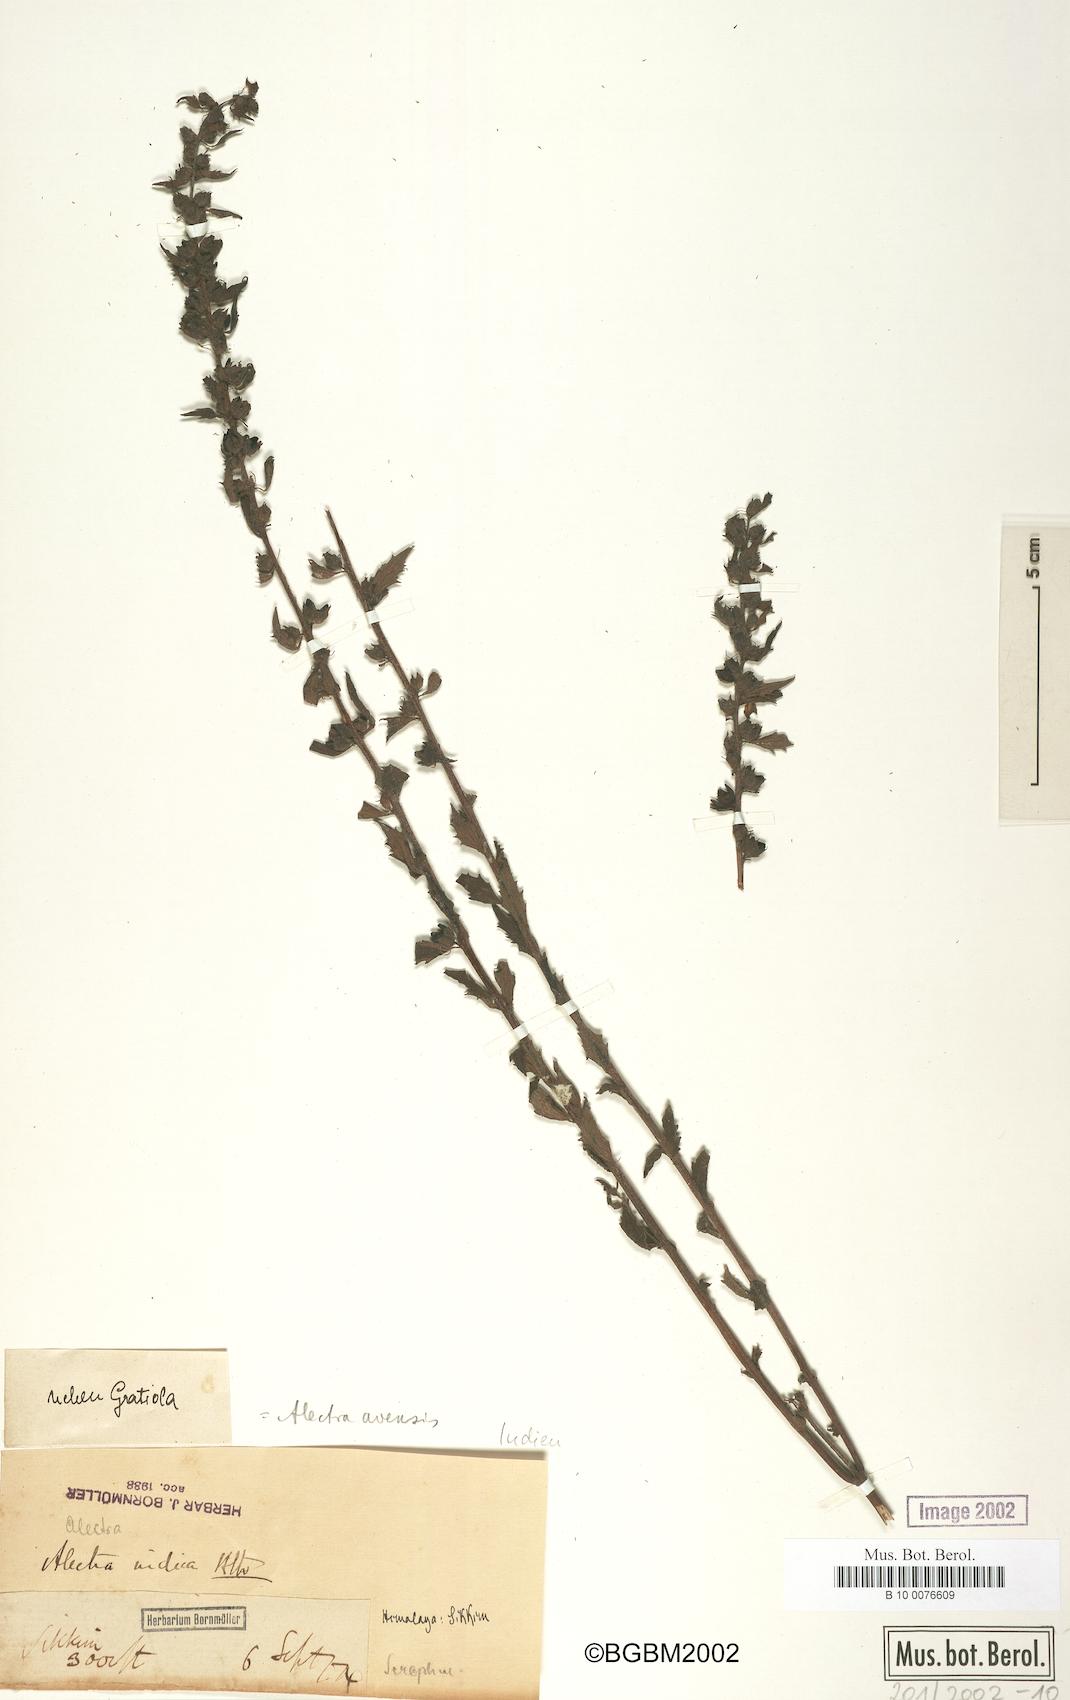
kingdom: Plantae
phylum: Tracheophyta
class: Magnoliopsida
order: Lamiales
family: Orobanchaceae
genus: Alectra
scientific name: Alectra avensis
